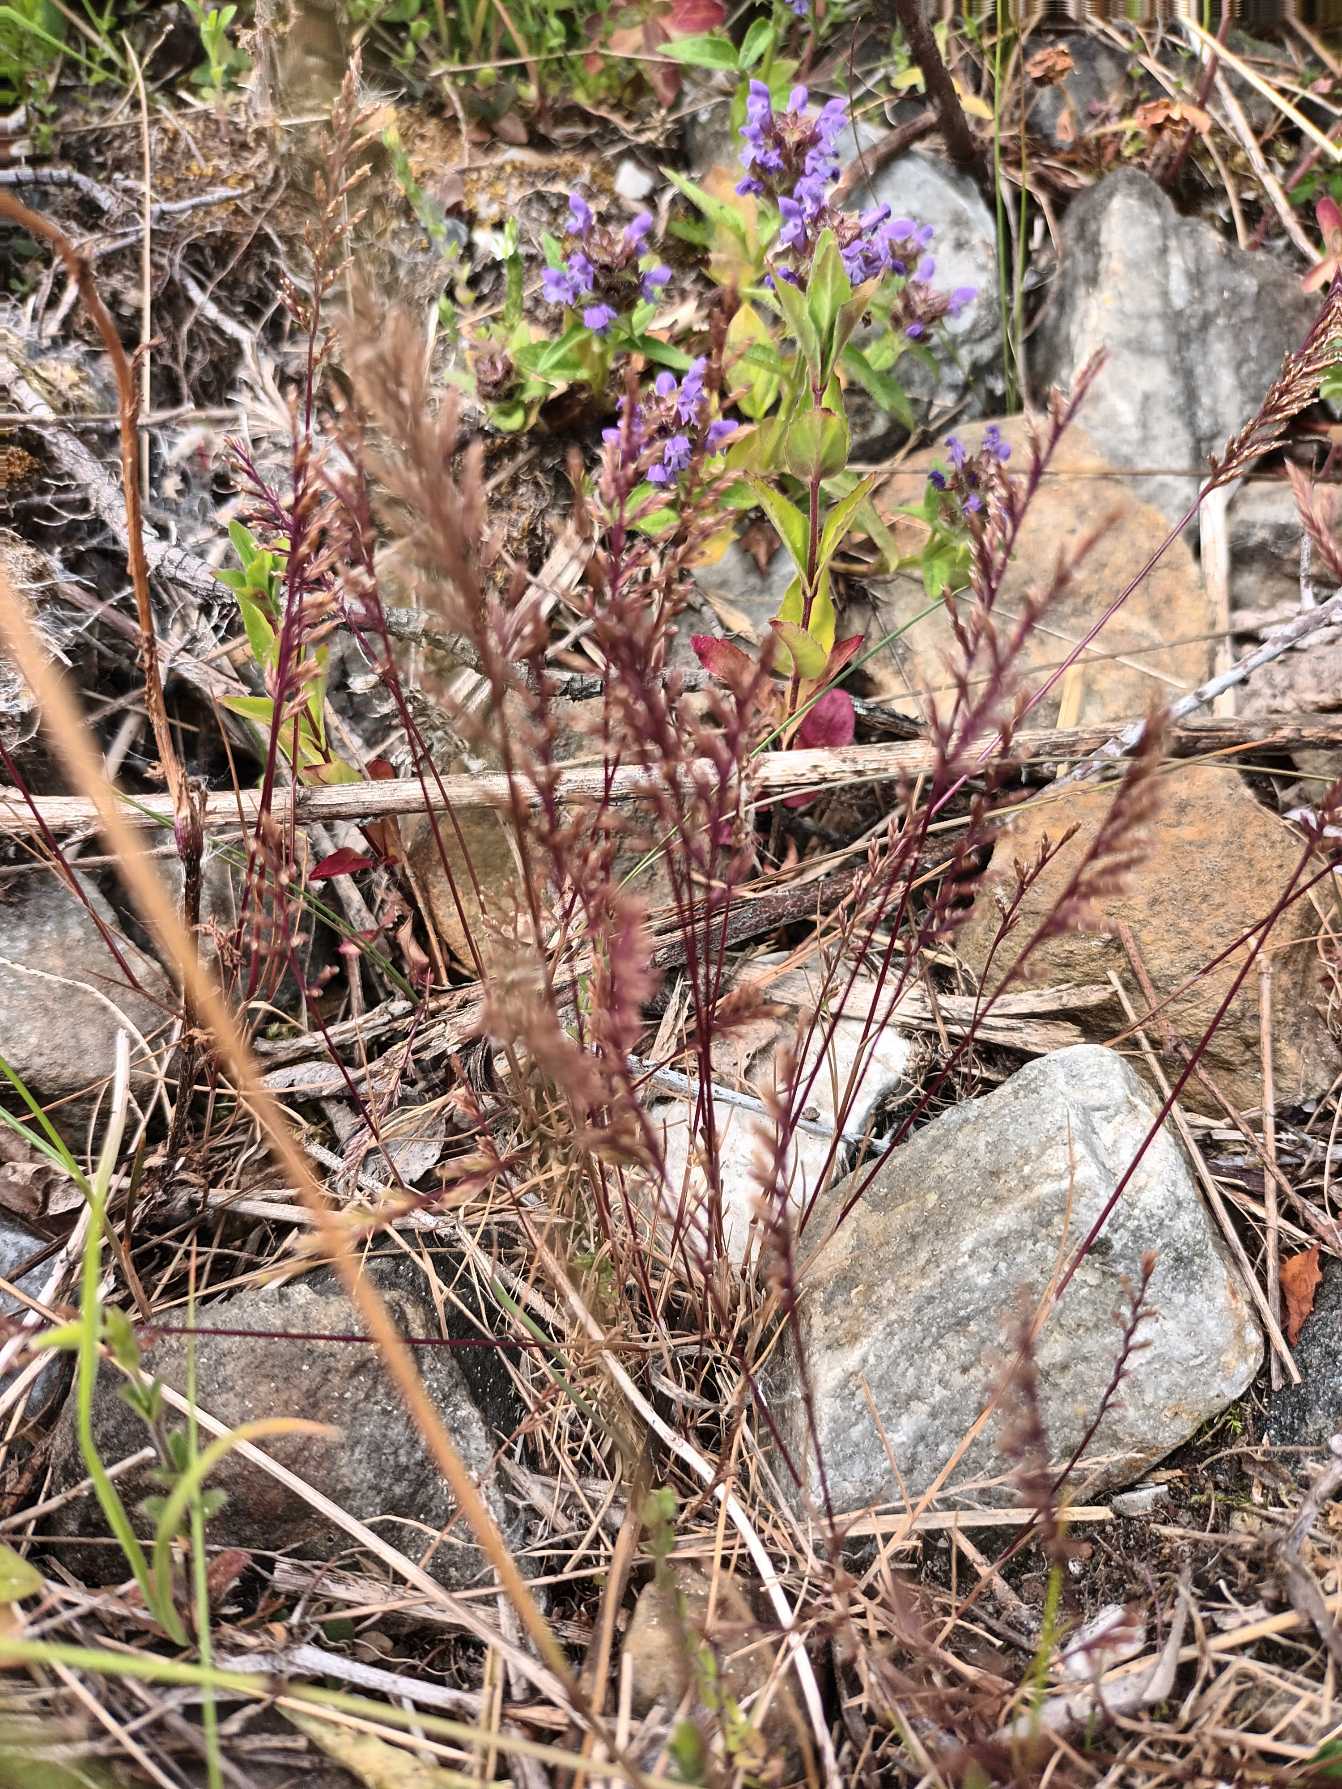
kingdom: Plantae
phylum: Tracheophyta
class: Liliopsida
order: Poales
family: Poaceae
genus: Catapodium
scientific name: Catapodium rigidum
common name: Bregnegræs
